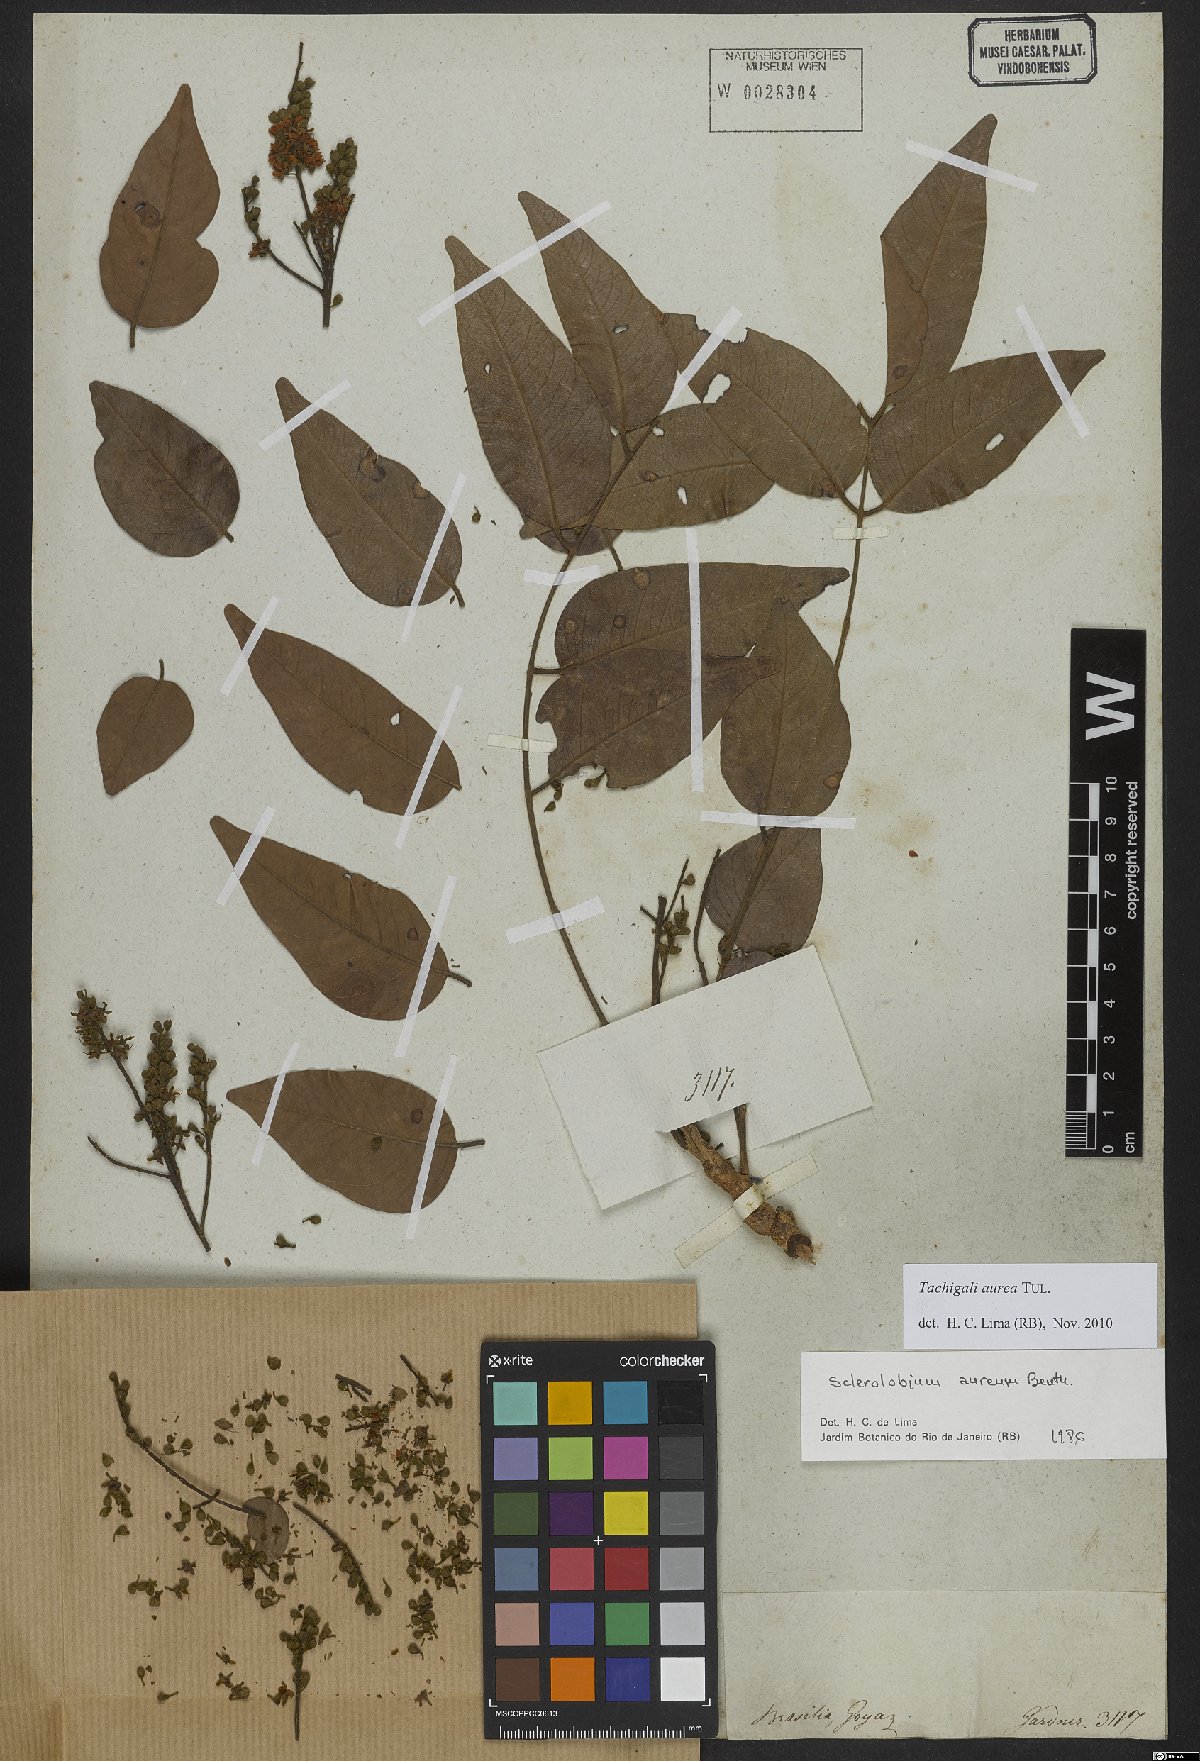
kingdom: Plantae
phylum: Tracheophyta
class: Magnoliopsida
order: Fabales
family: Fabaceae
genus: Tachigali
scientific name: Tachigali aurea
